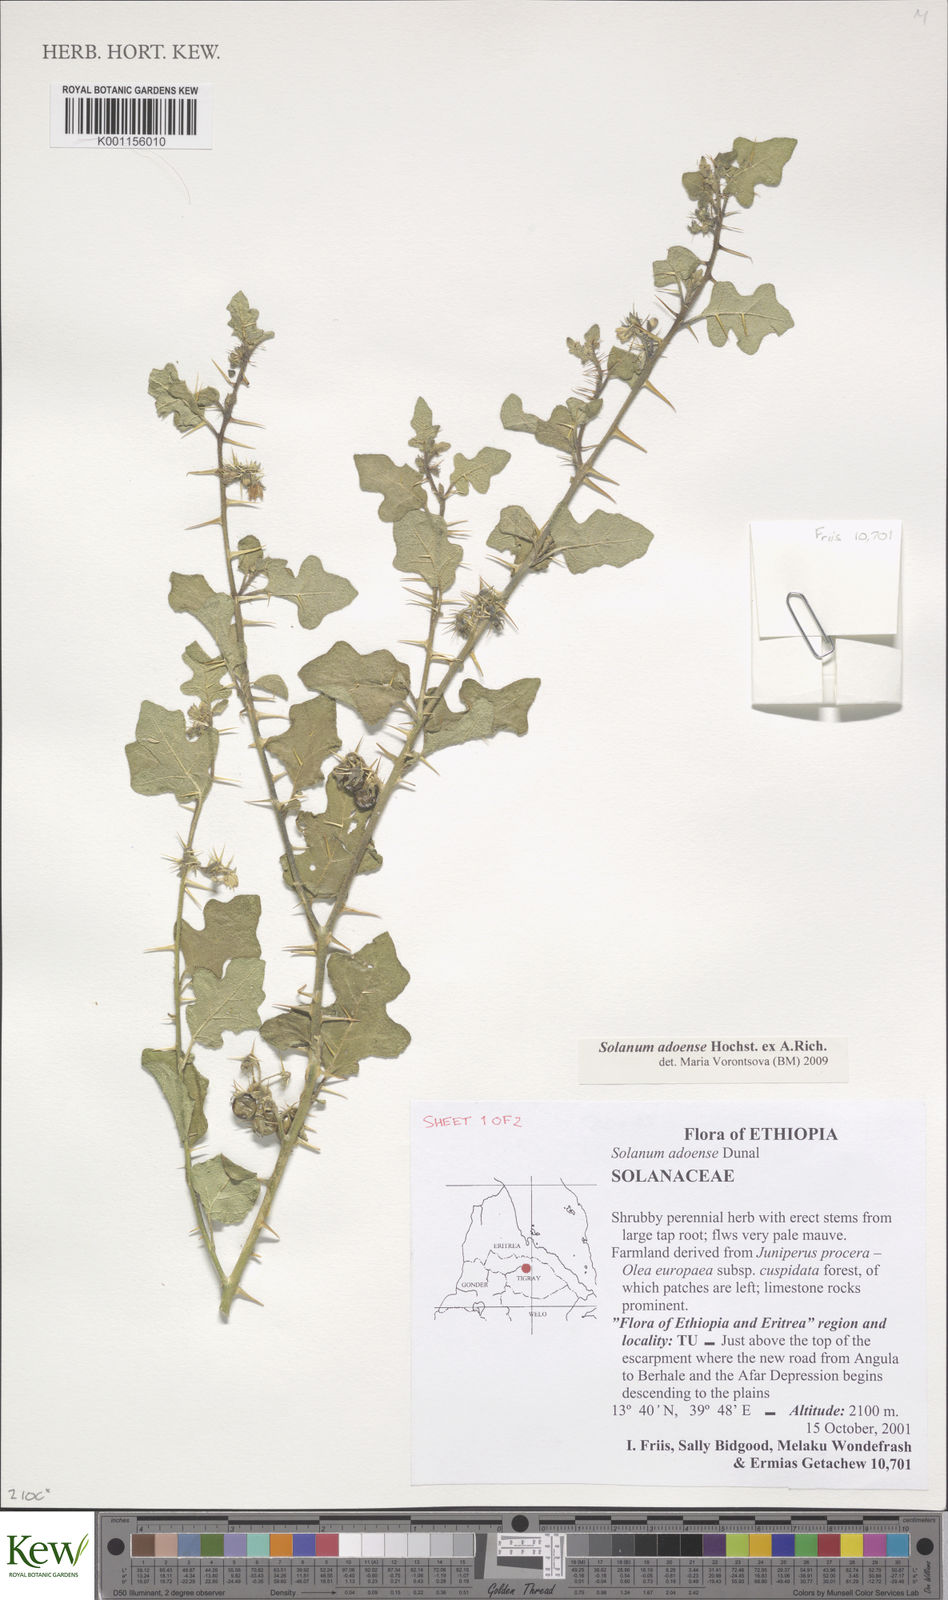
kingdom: Plantae
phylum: Tracheophyta
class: Magnoliopsida
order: Solanales
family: Solanaceae
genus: Solanum
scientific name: Solanum adoense
